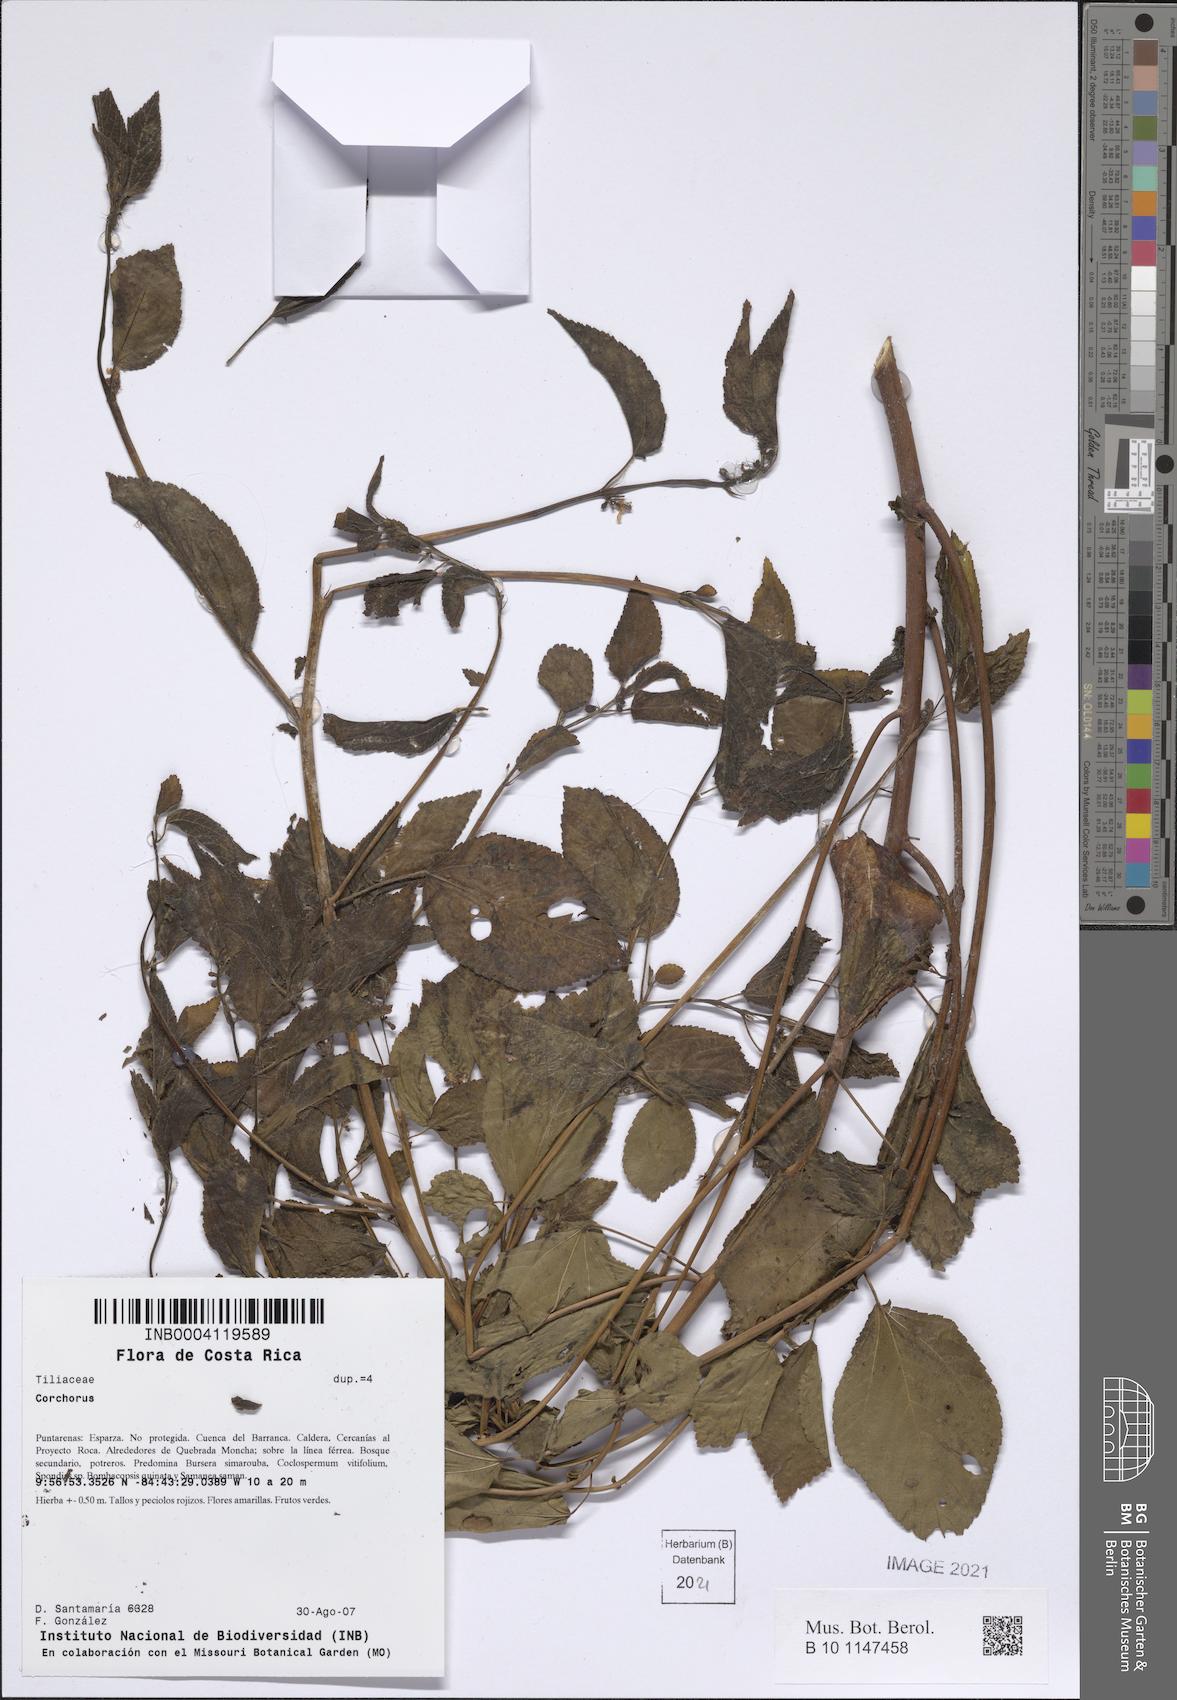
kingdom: Plantae
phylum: Tracheophyta
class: Magnoliopsida
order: Malvales
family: Malvaceae
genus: Corchorus
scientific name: Corchorus
